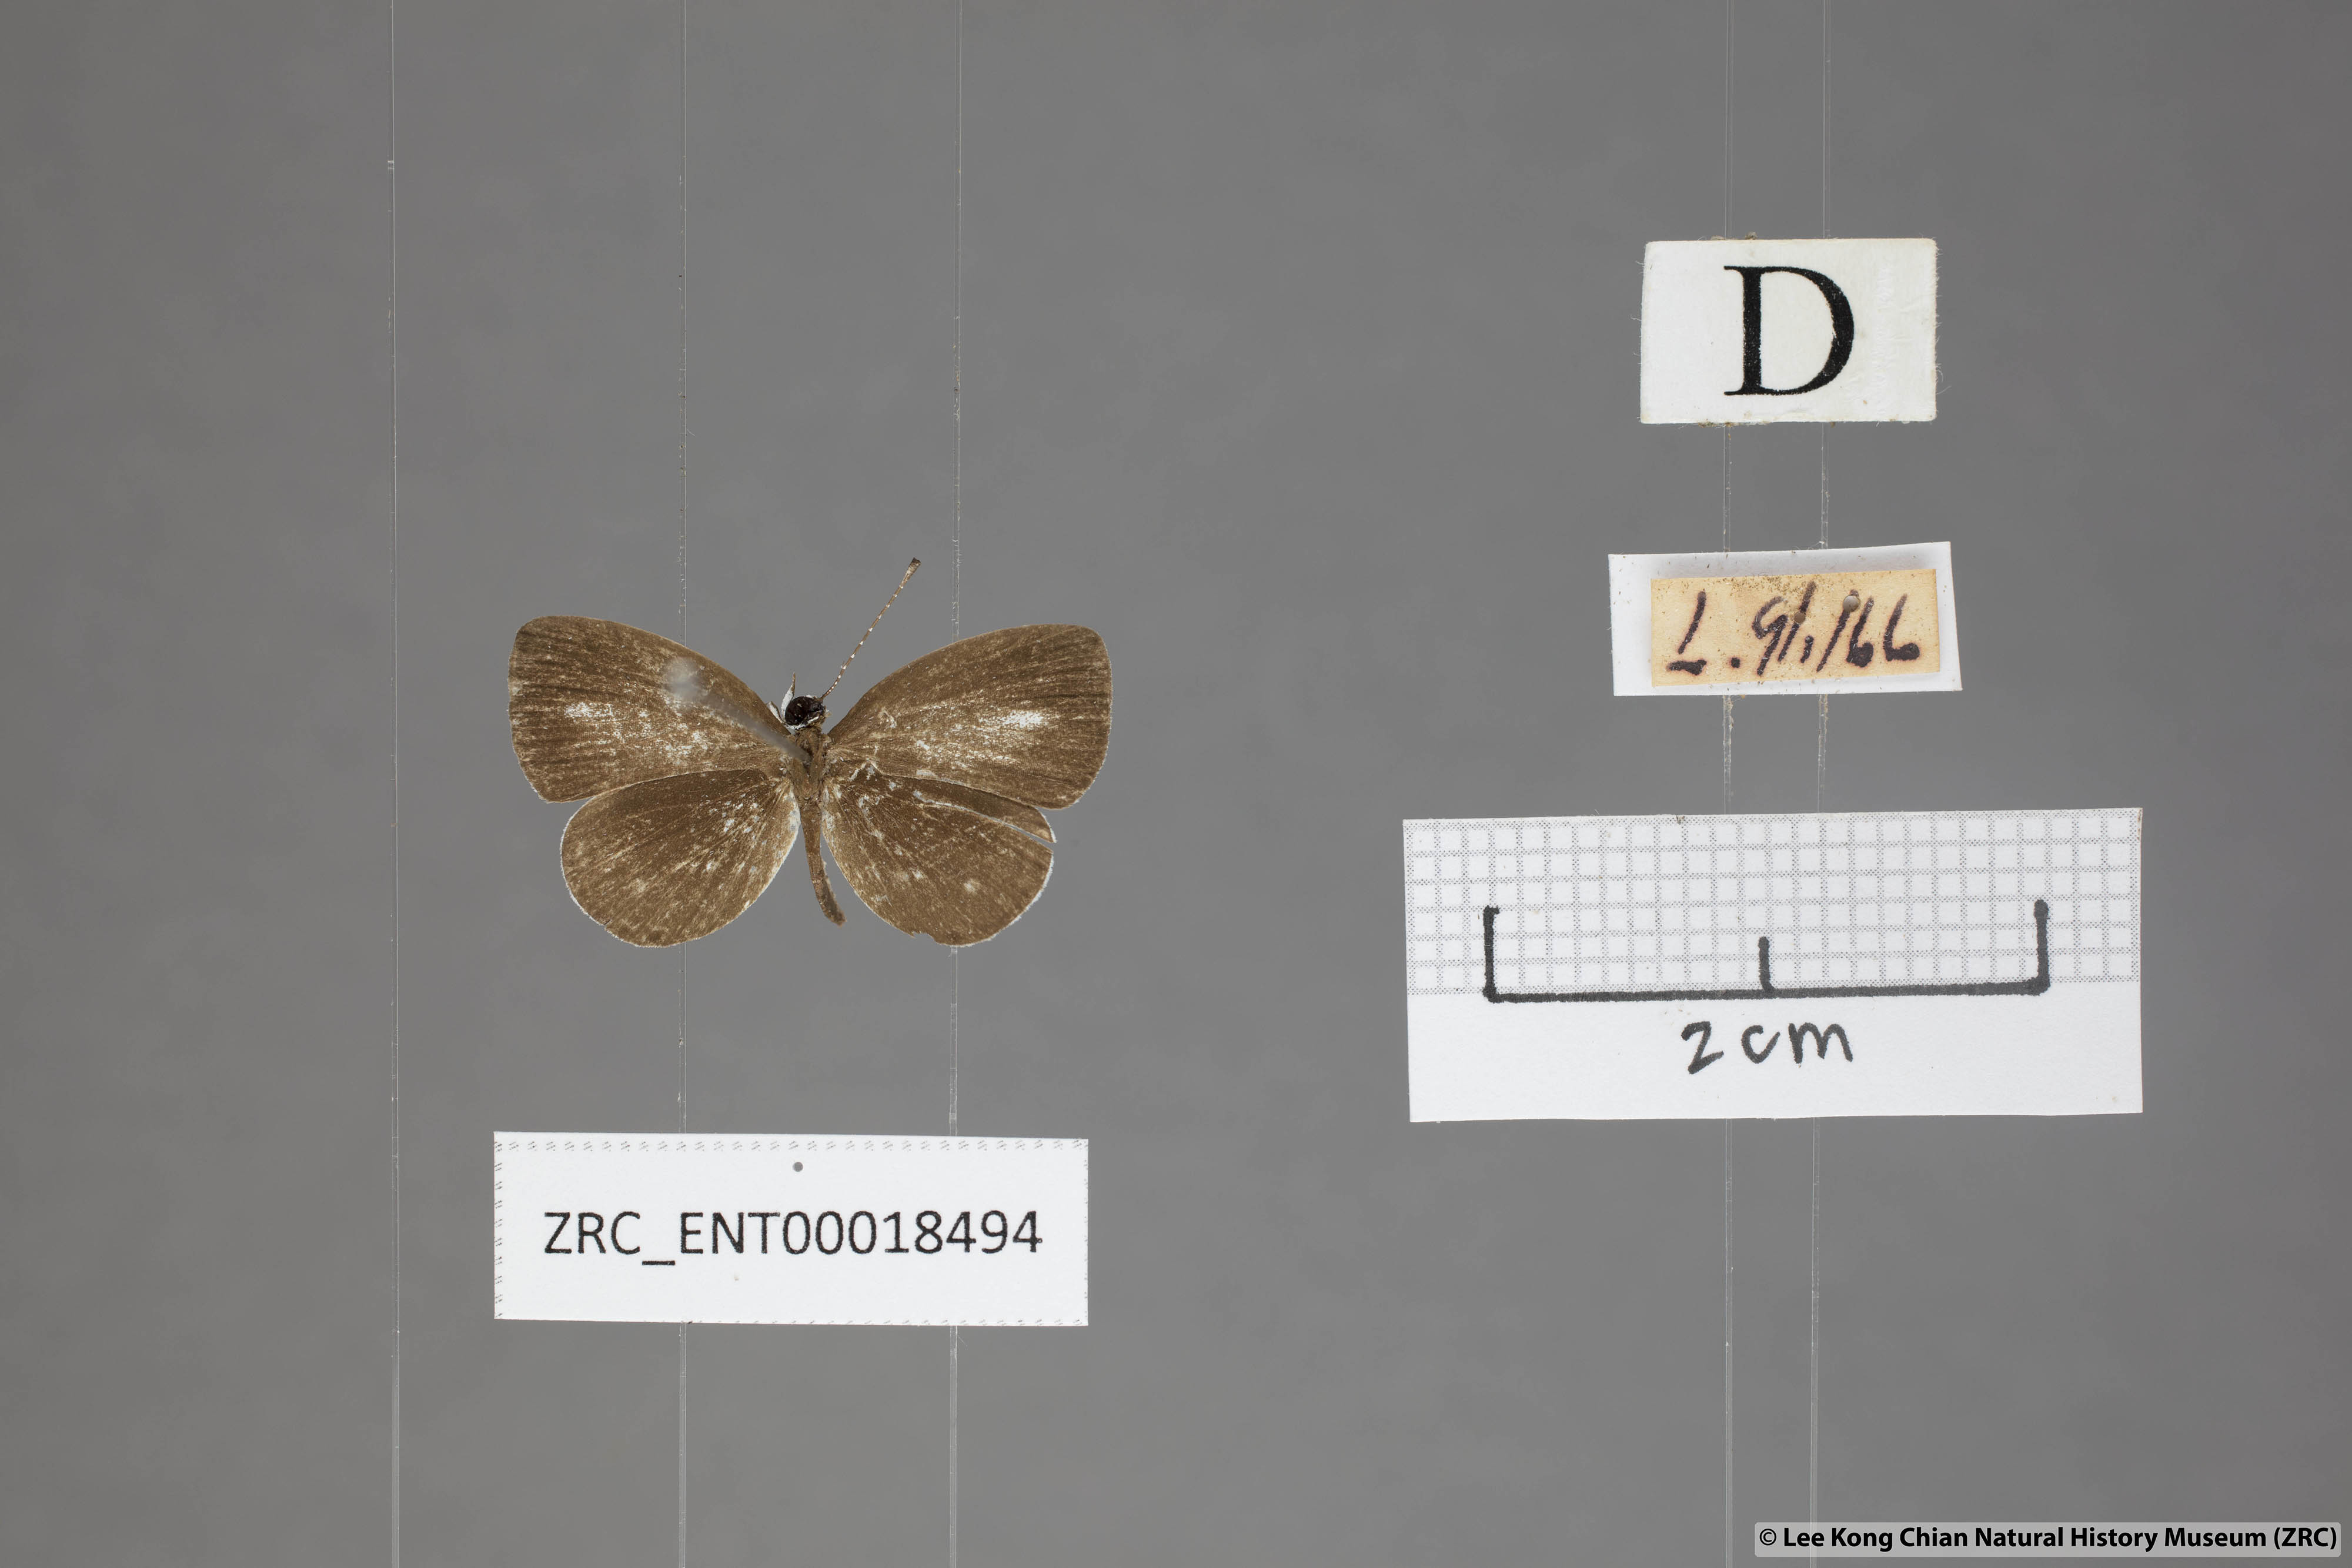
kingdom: Animalia
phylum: Arthropoda
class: Insecta
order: Lepidoptera
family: Lycaenidae
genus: Neopithecops
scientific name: Neopithecops zalmora
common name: Quaker
